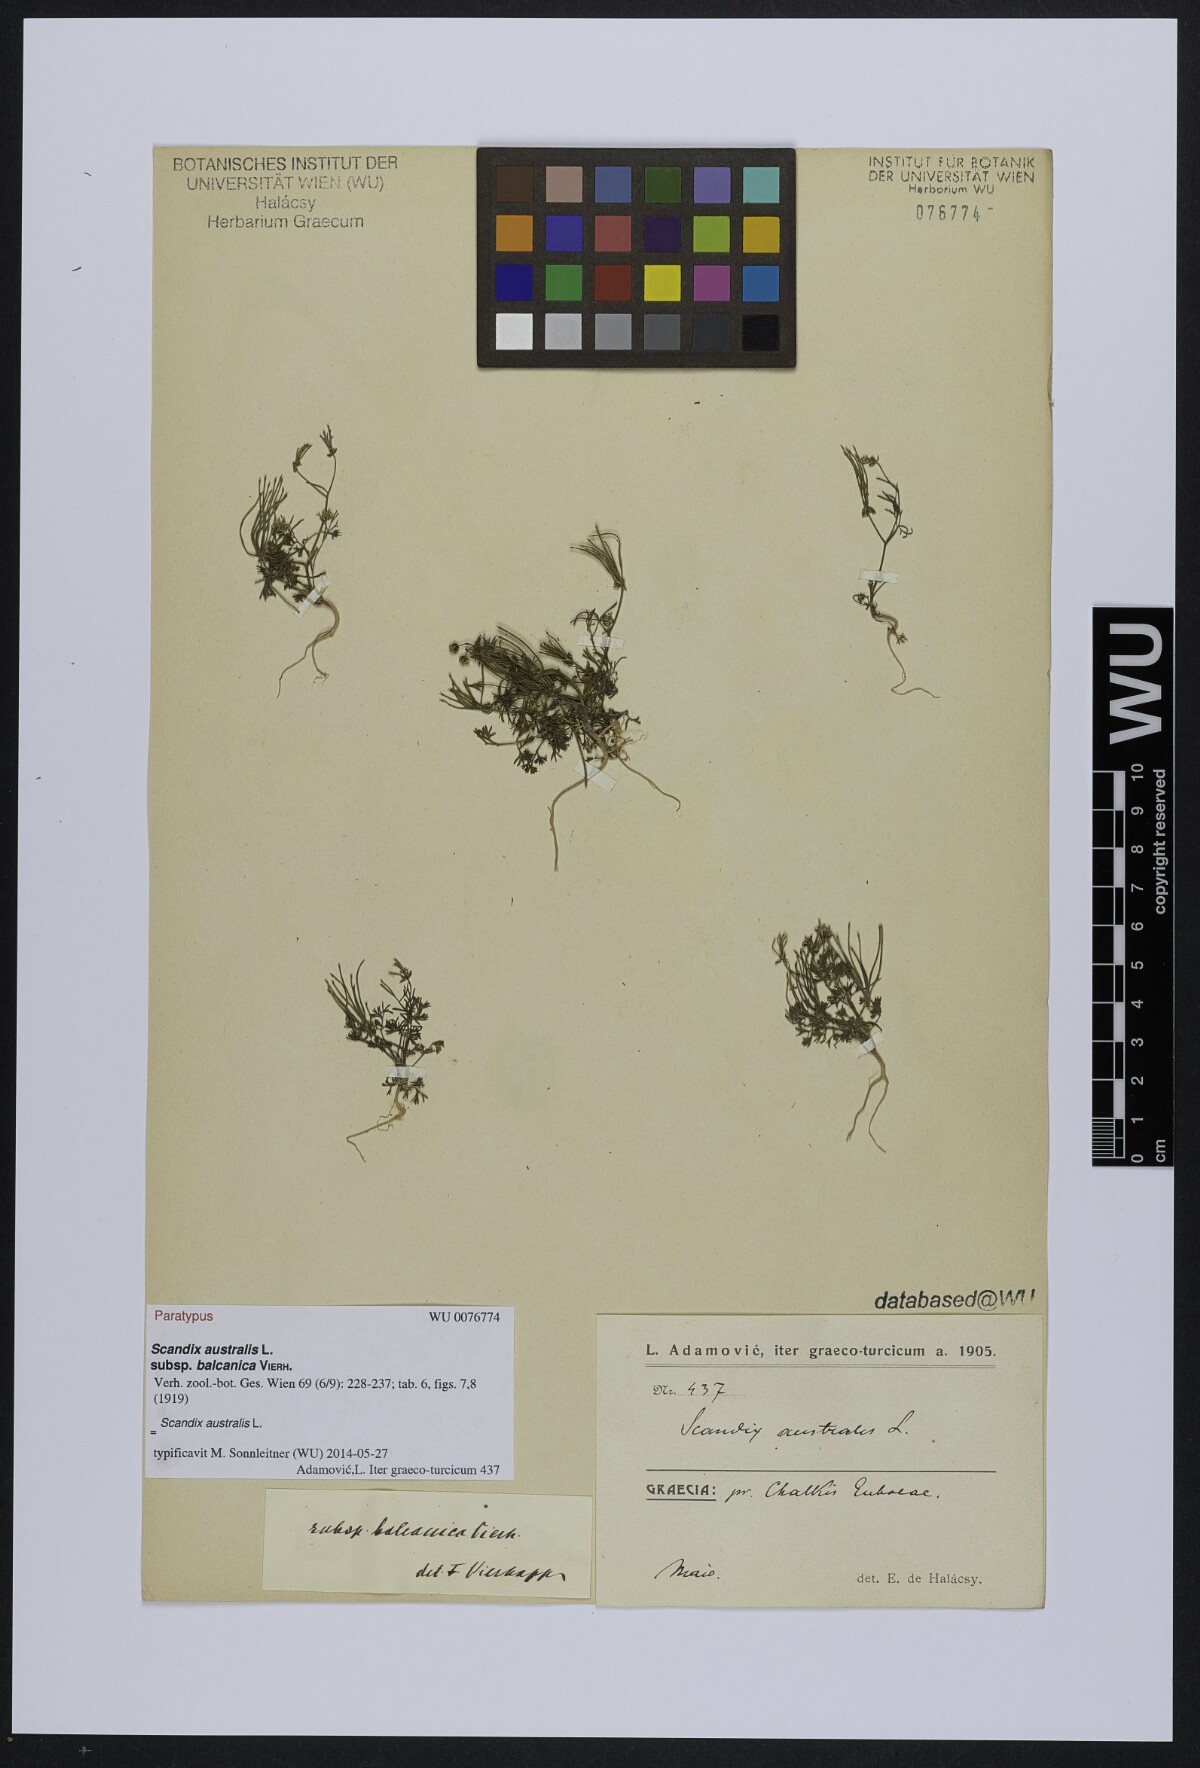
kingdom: Plantae
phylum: Tracheophyta
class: Magnoliopsida
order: Apiales
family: Apiaceae
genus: Scandix
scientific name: Scandix australis
